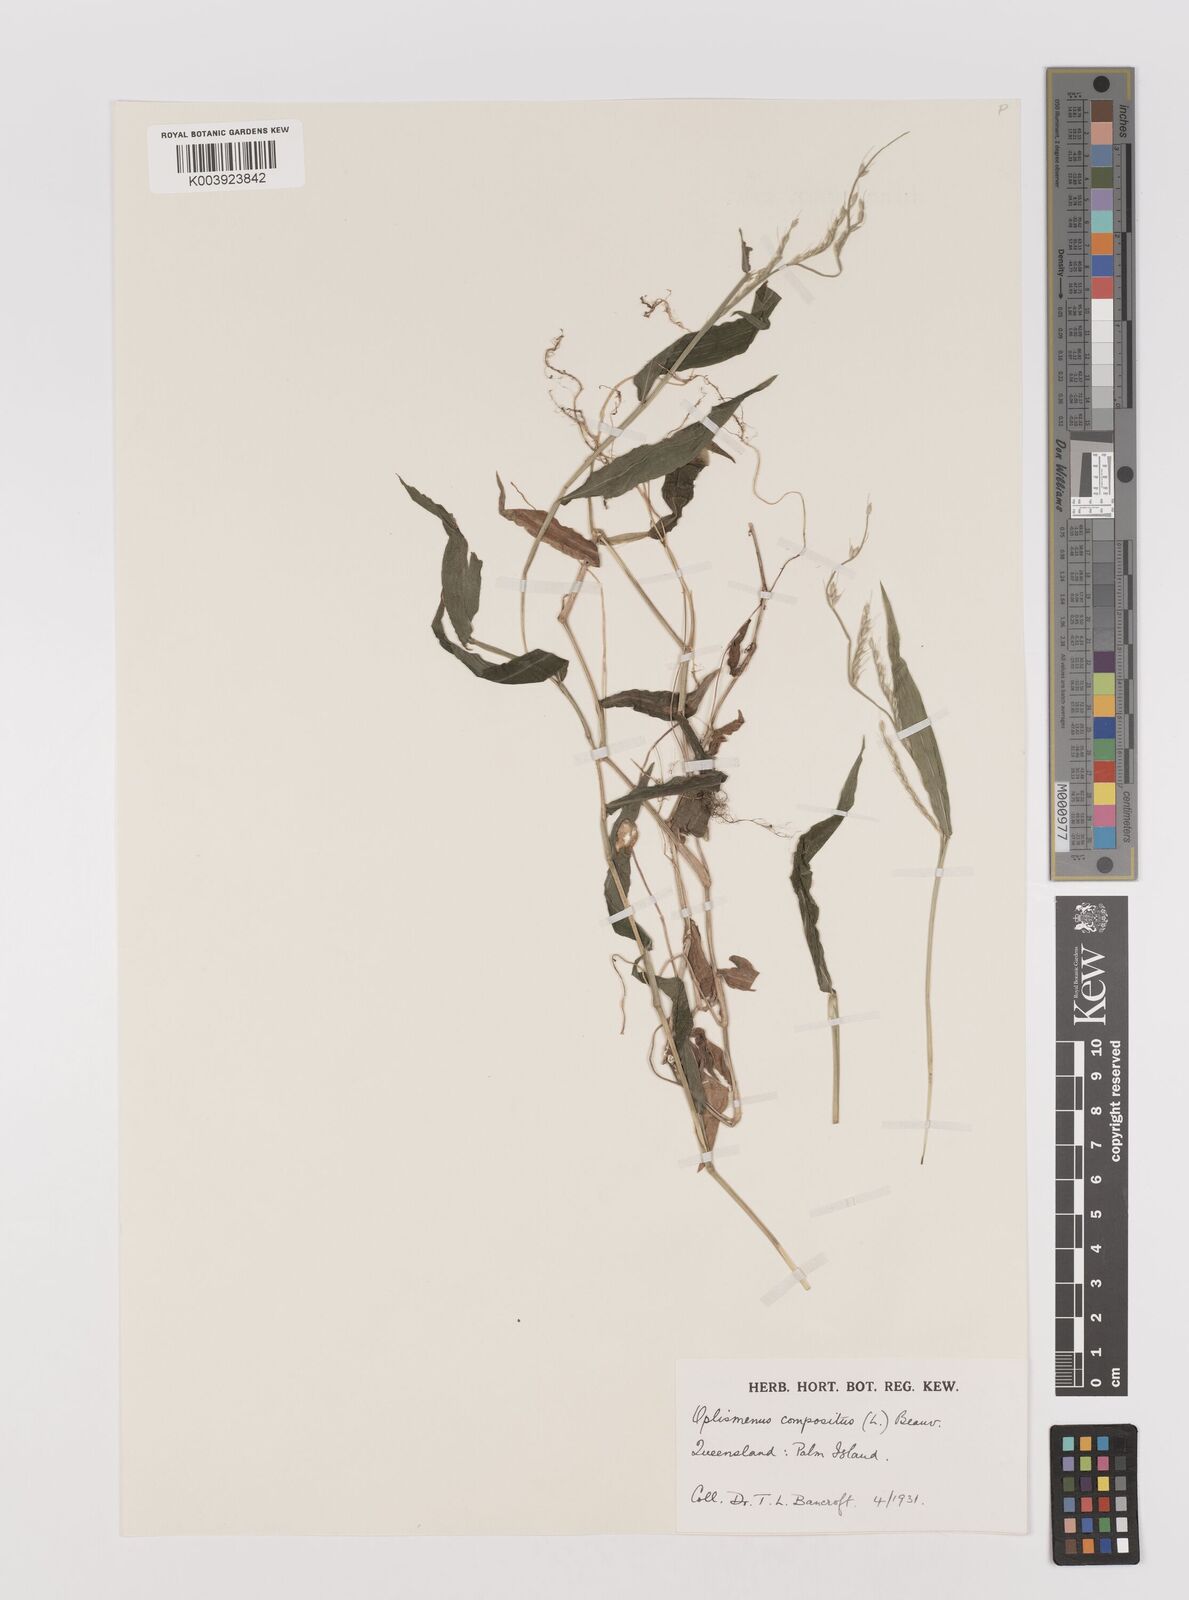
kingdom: Plantae
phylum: Tracheophyta
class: Liliopsida
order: Poales
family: Poaceae
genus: Oplismenus
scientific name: Oplismenus compositus
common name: Running mountain grass
